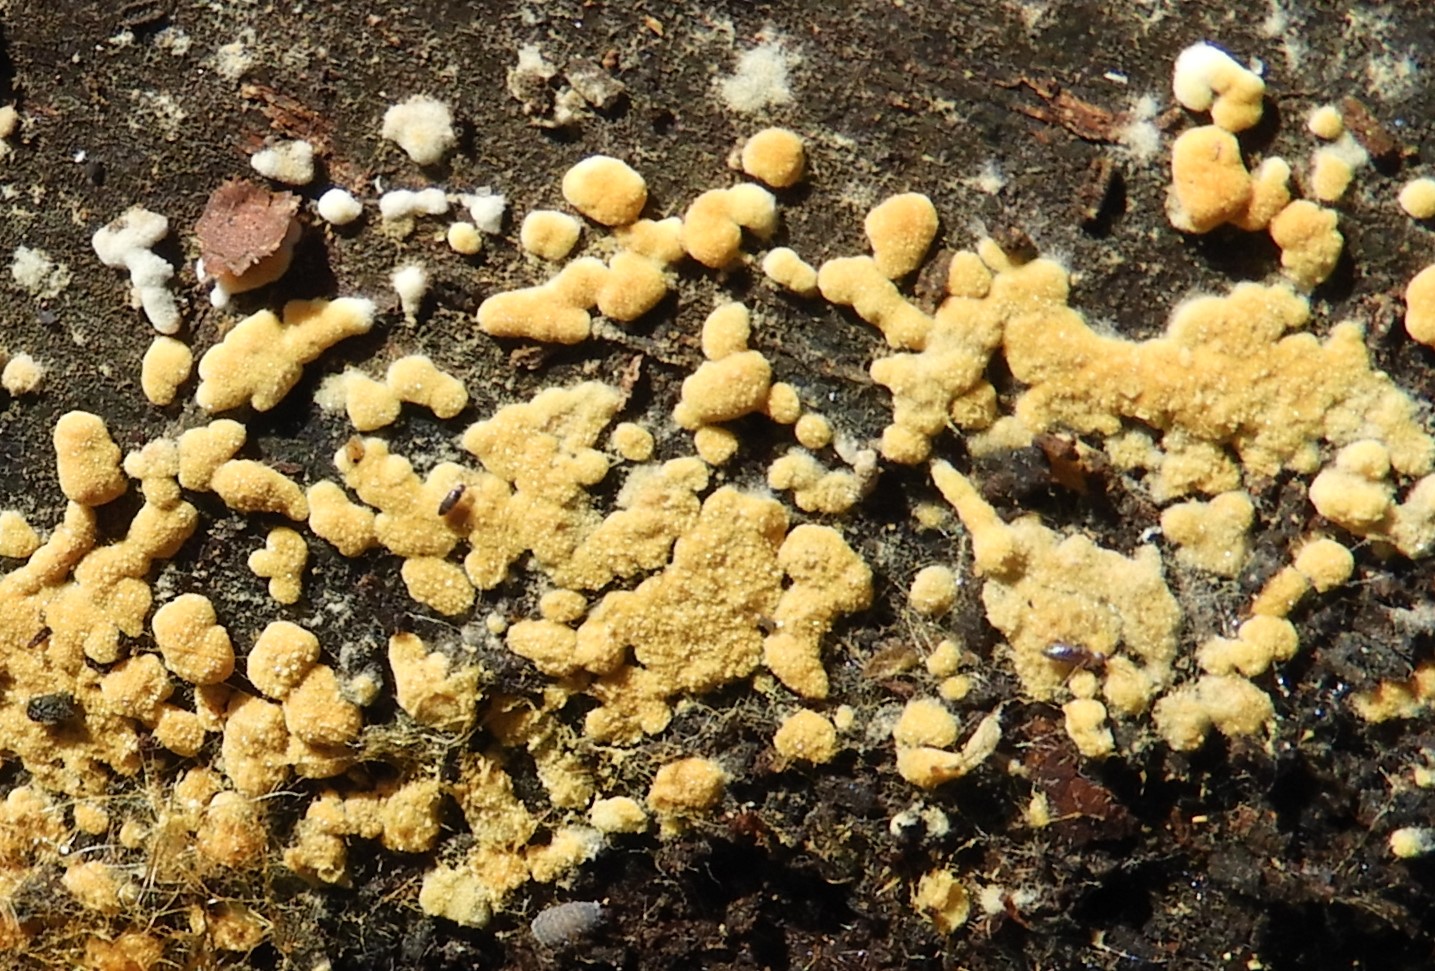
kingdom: Fungi
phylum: Basidiomycota
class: Agaricomycetes
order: Cantharellales
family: Botryobasidiaceae
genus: Botryobasidium
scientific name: Botryobasidium aureum
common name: gylden spindhinde
